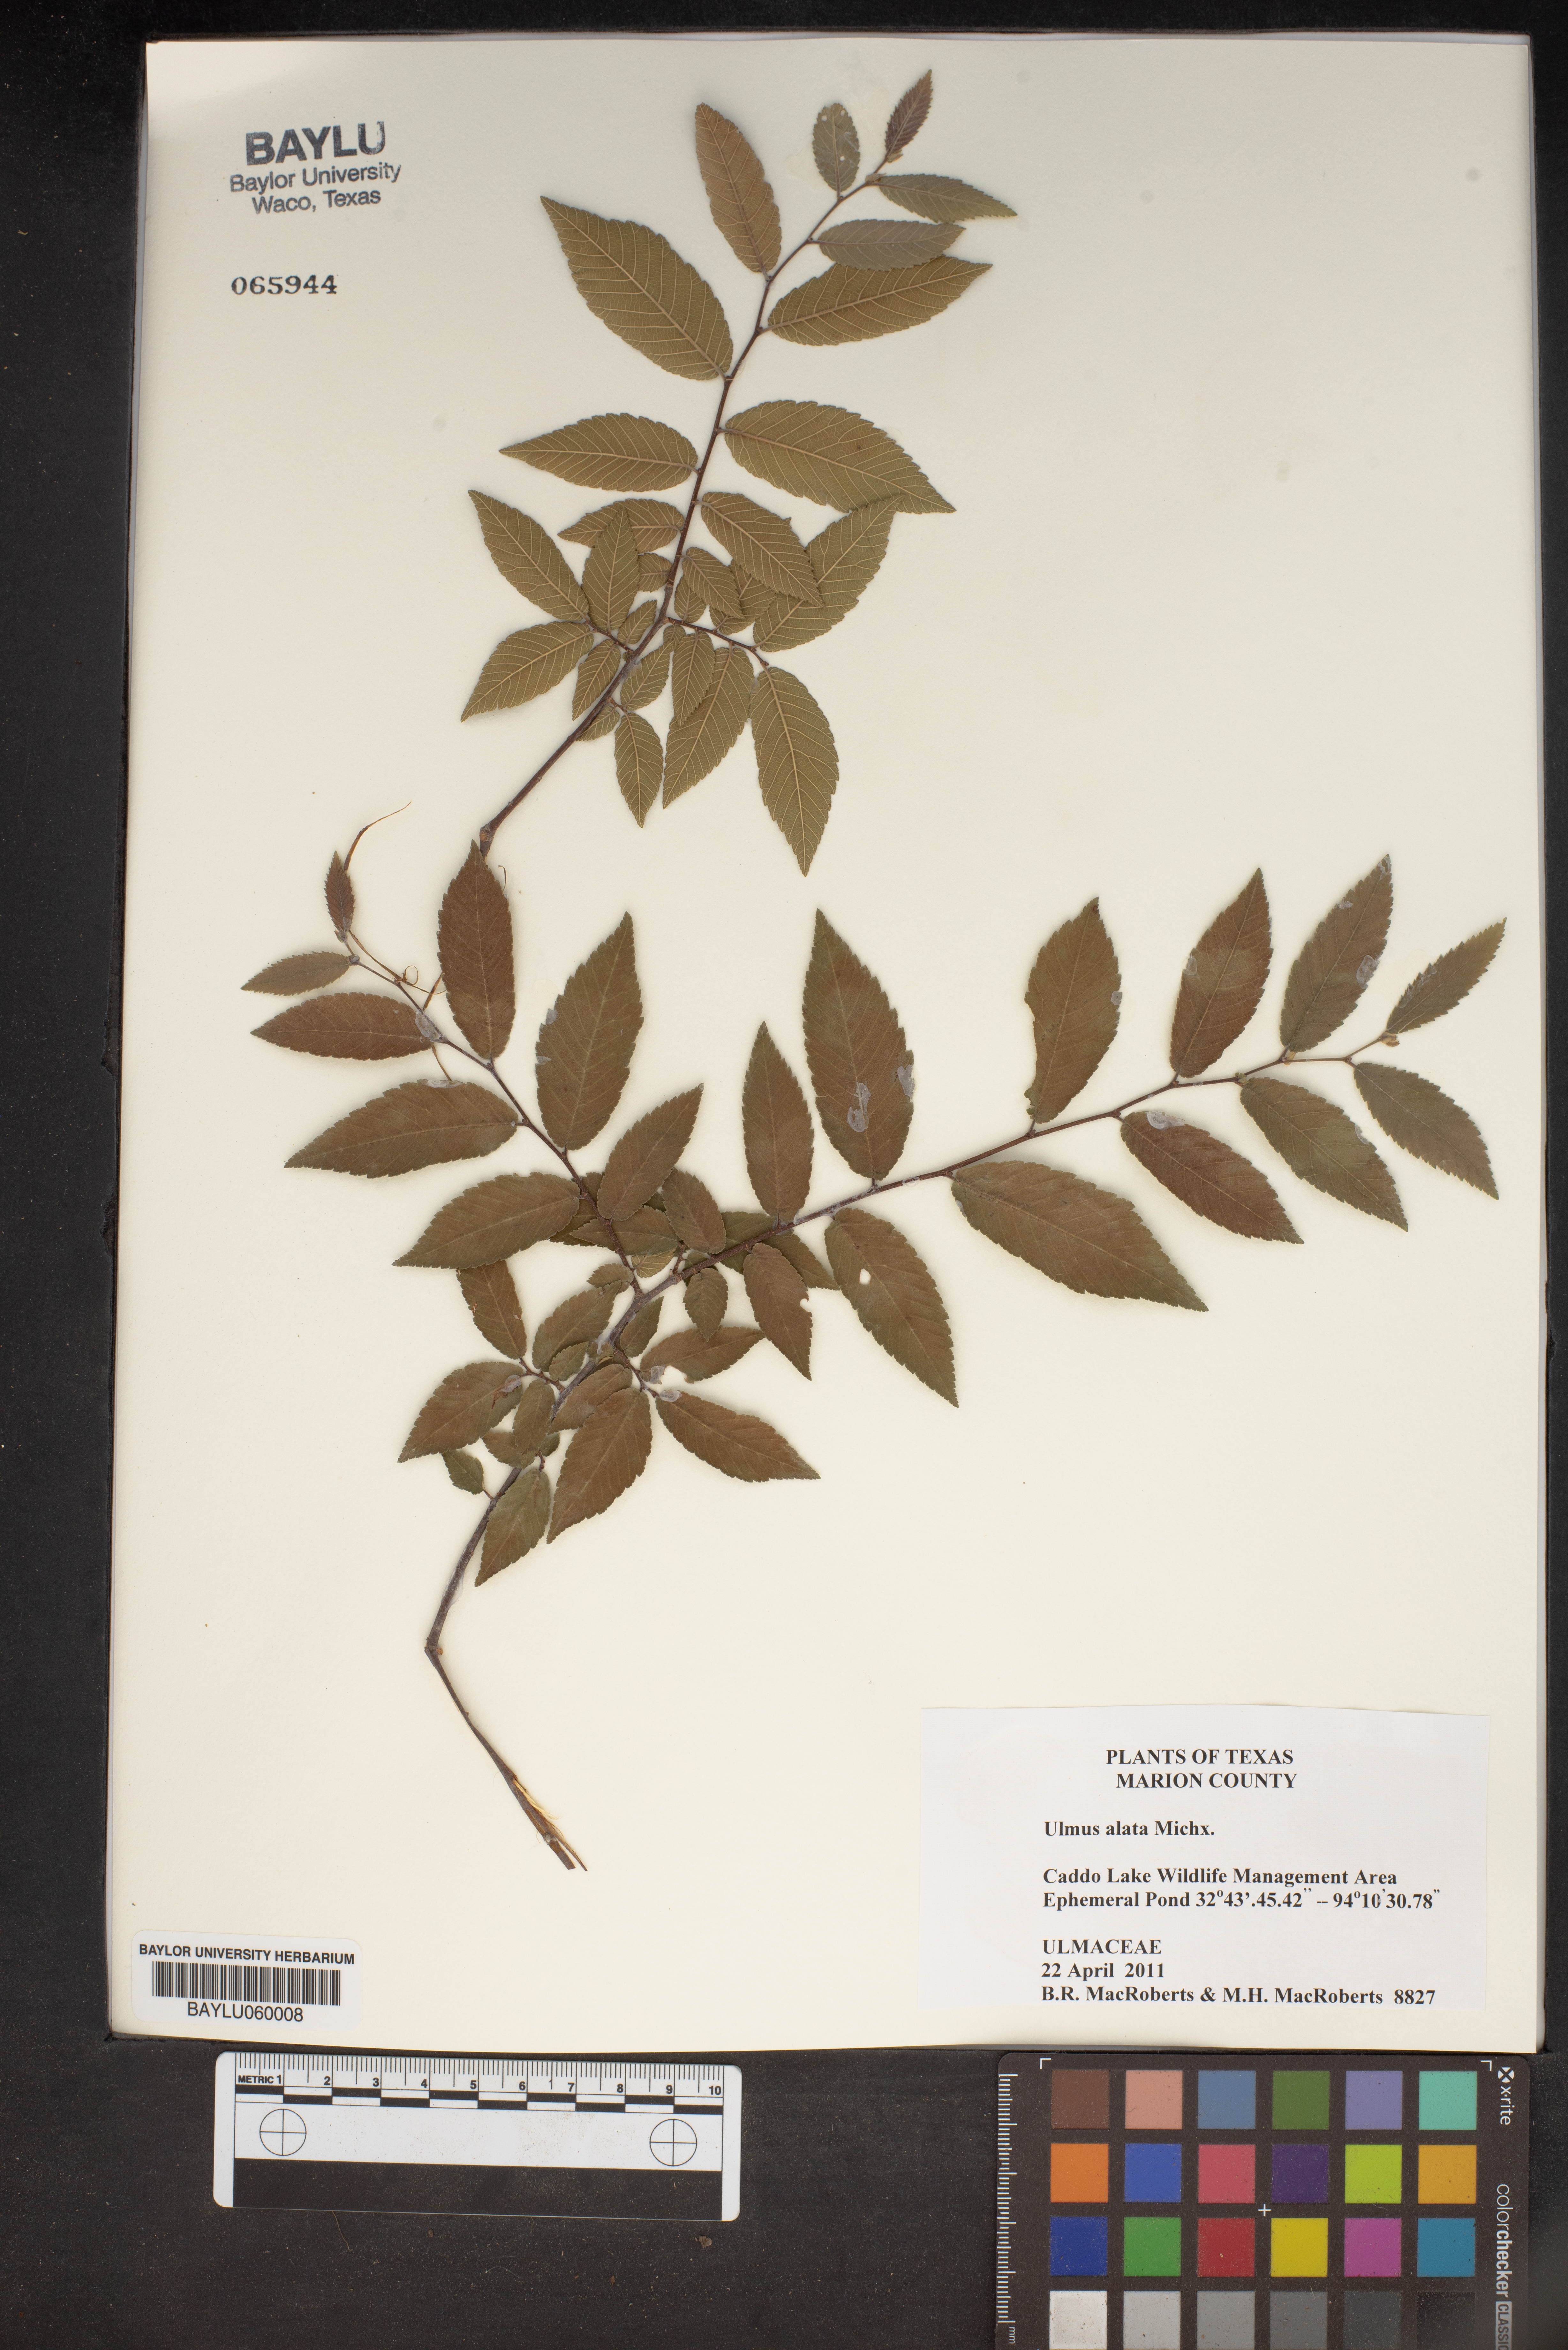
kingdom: Plantae
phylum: Tracheophyta
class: Magnoliopsida
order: Rosales
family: Ulmaceae
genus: Ulmus
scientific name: Ulmus alata
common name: Winged elm
